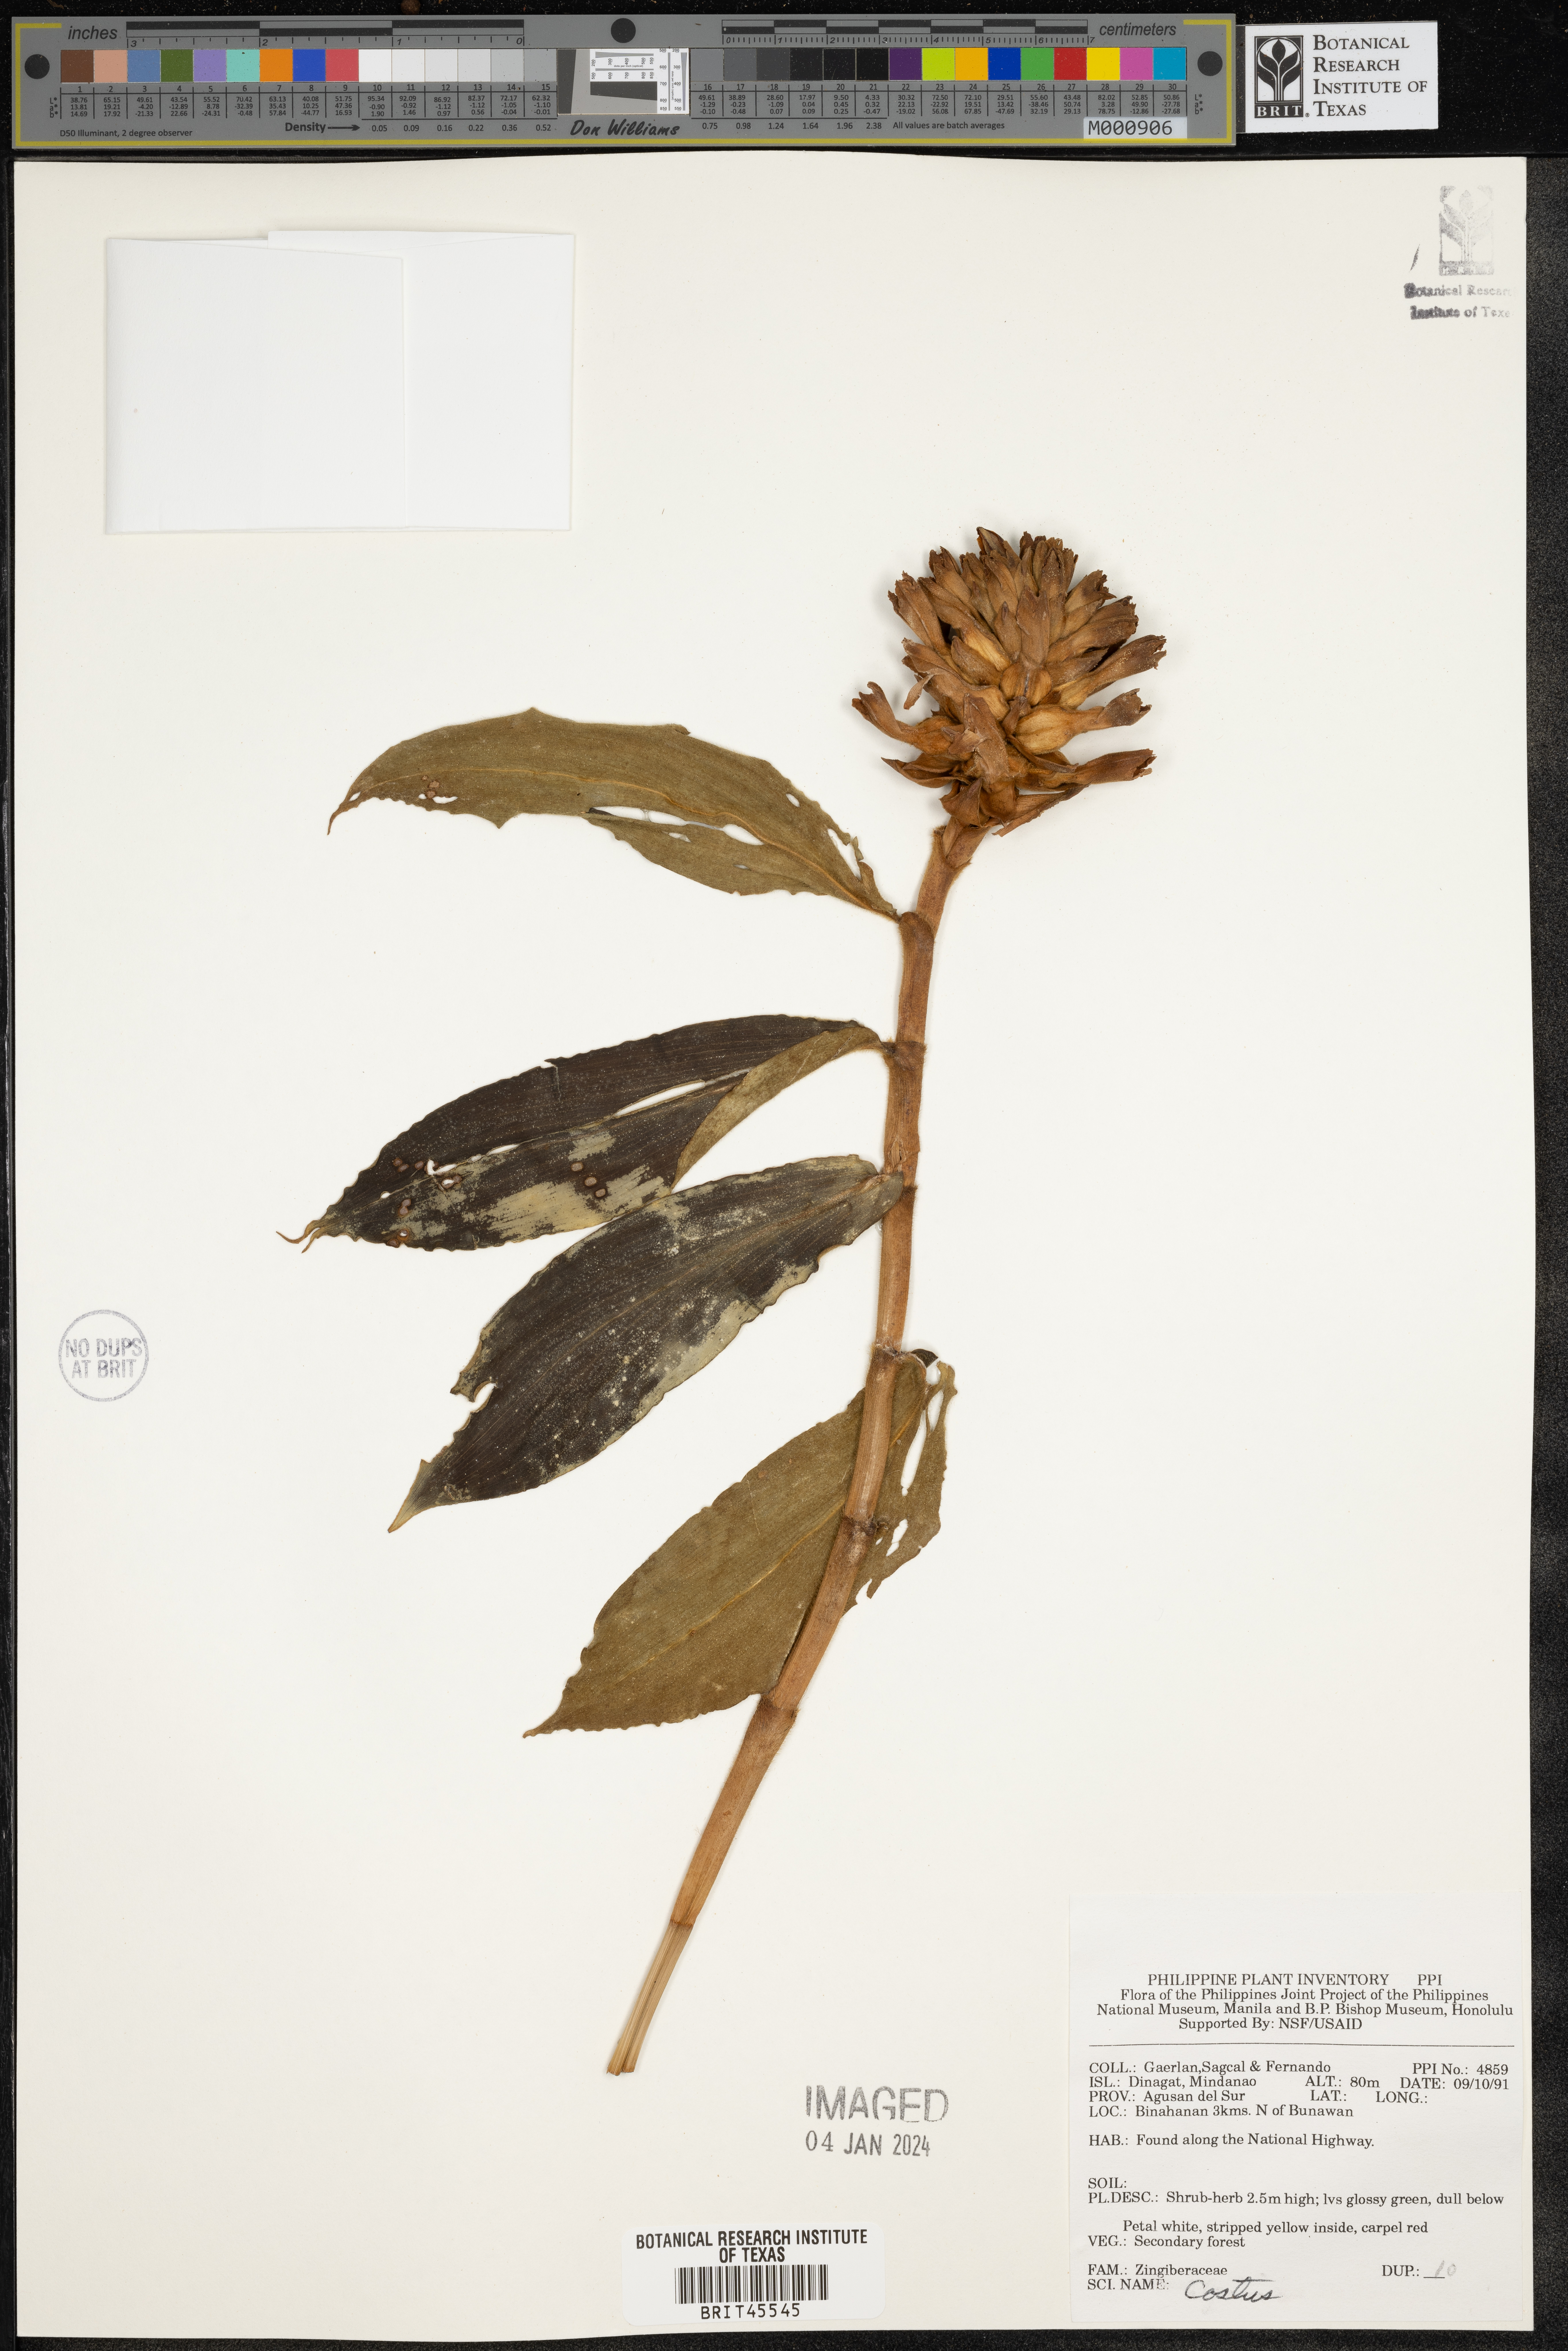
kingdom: Plantae
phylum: Tracheophyta
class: Liliopsida
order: Zingiberales
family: Costaceae
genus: Costus
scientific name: Costus
